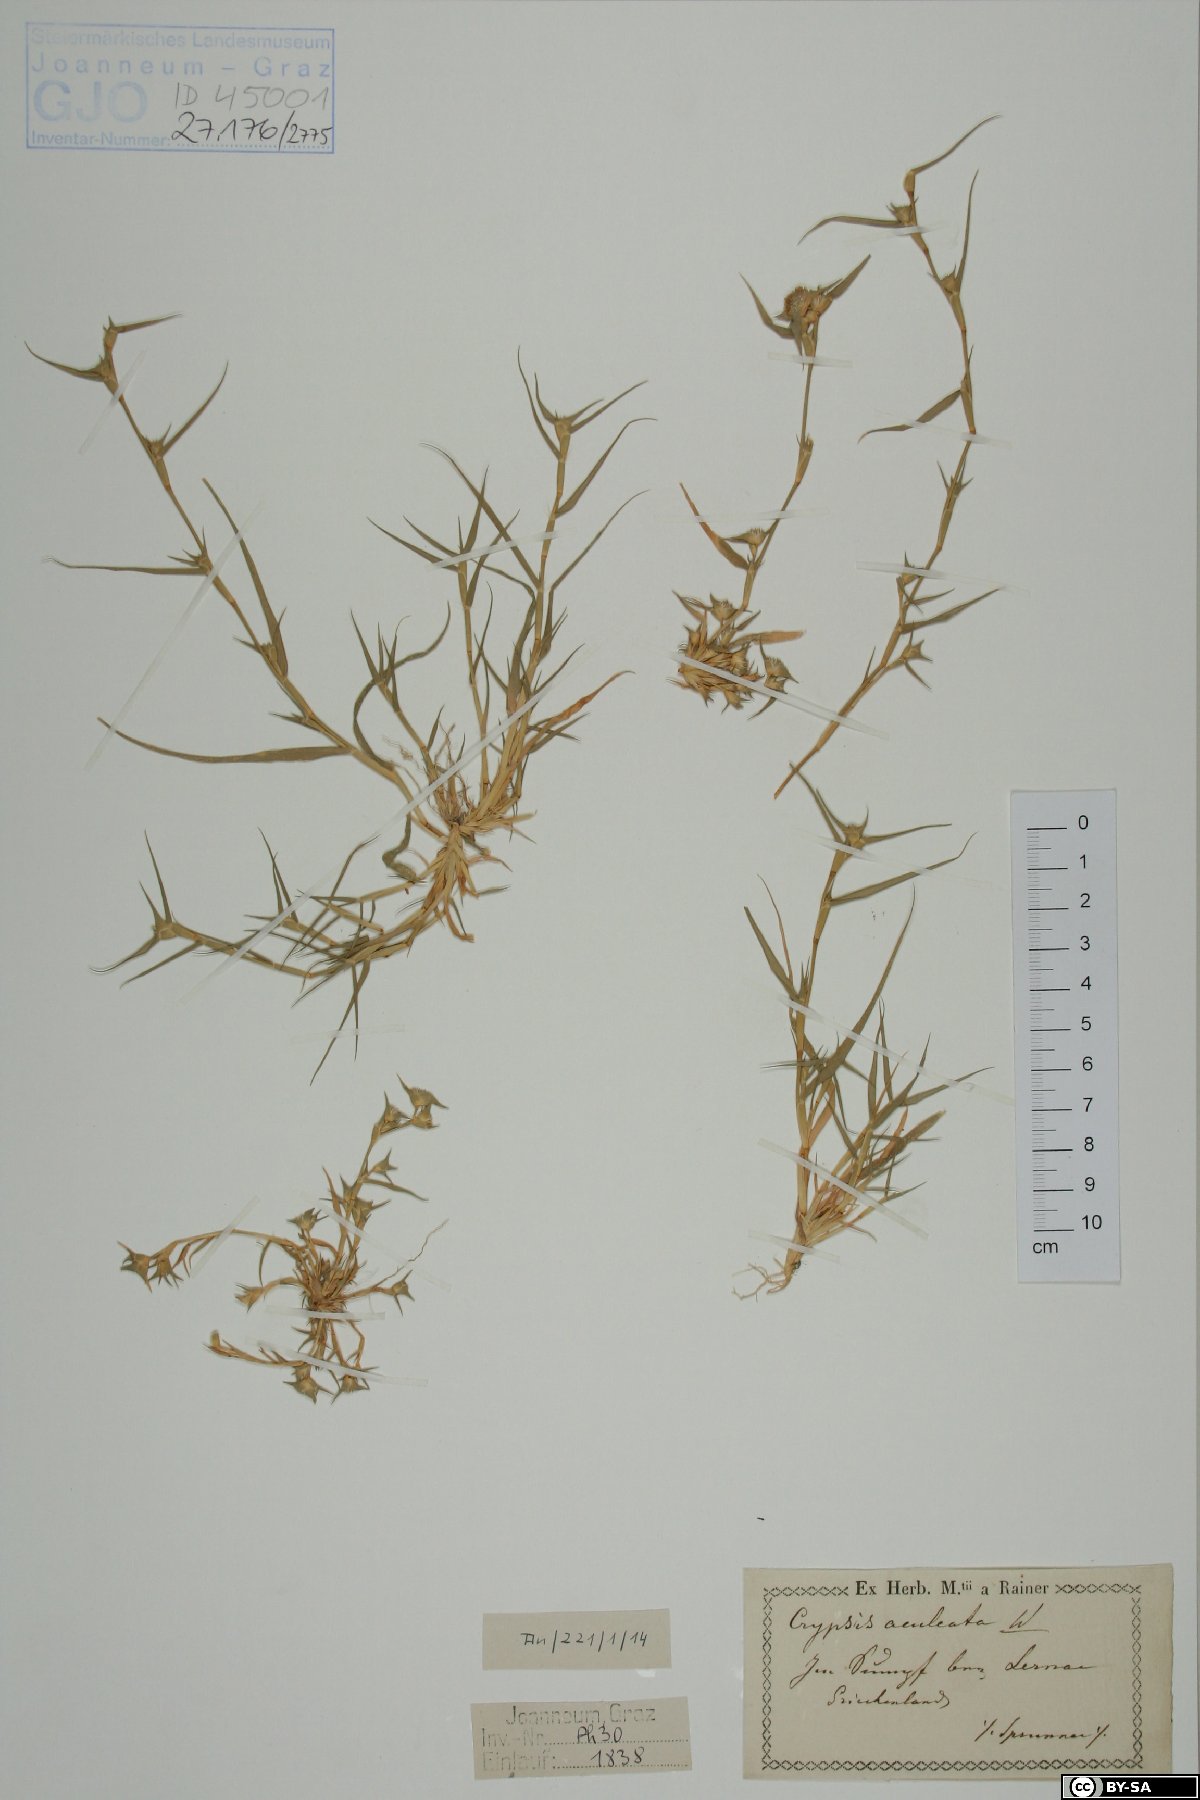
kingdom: Plantae
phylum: Tracheophyta
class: Liliopsida
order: Poales
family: Poaceae
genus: Sporobolus
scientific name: Sporobolus aculeatus
